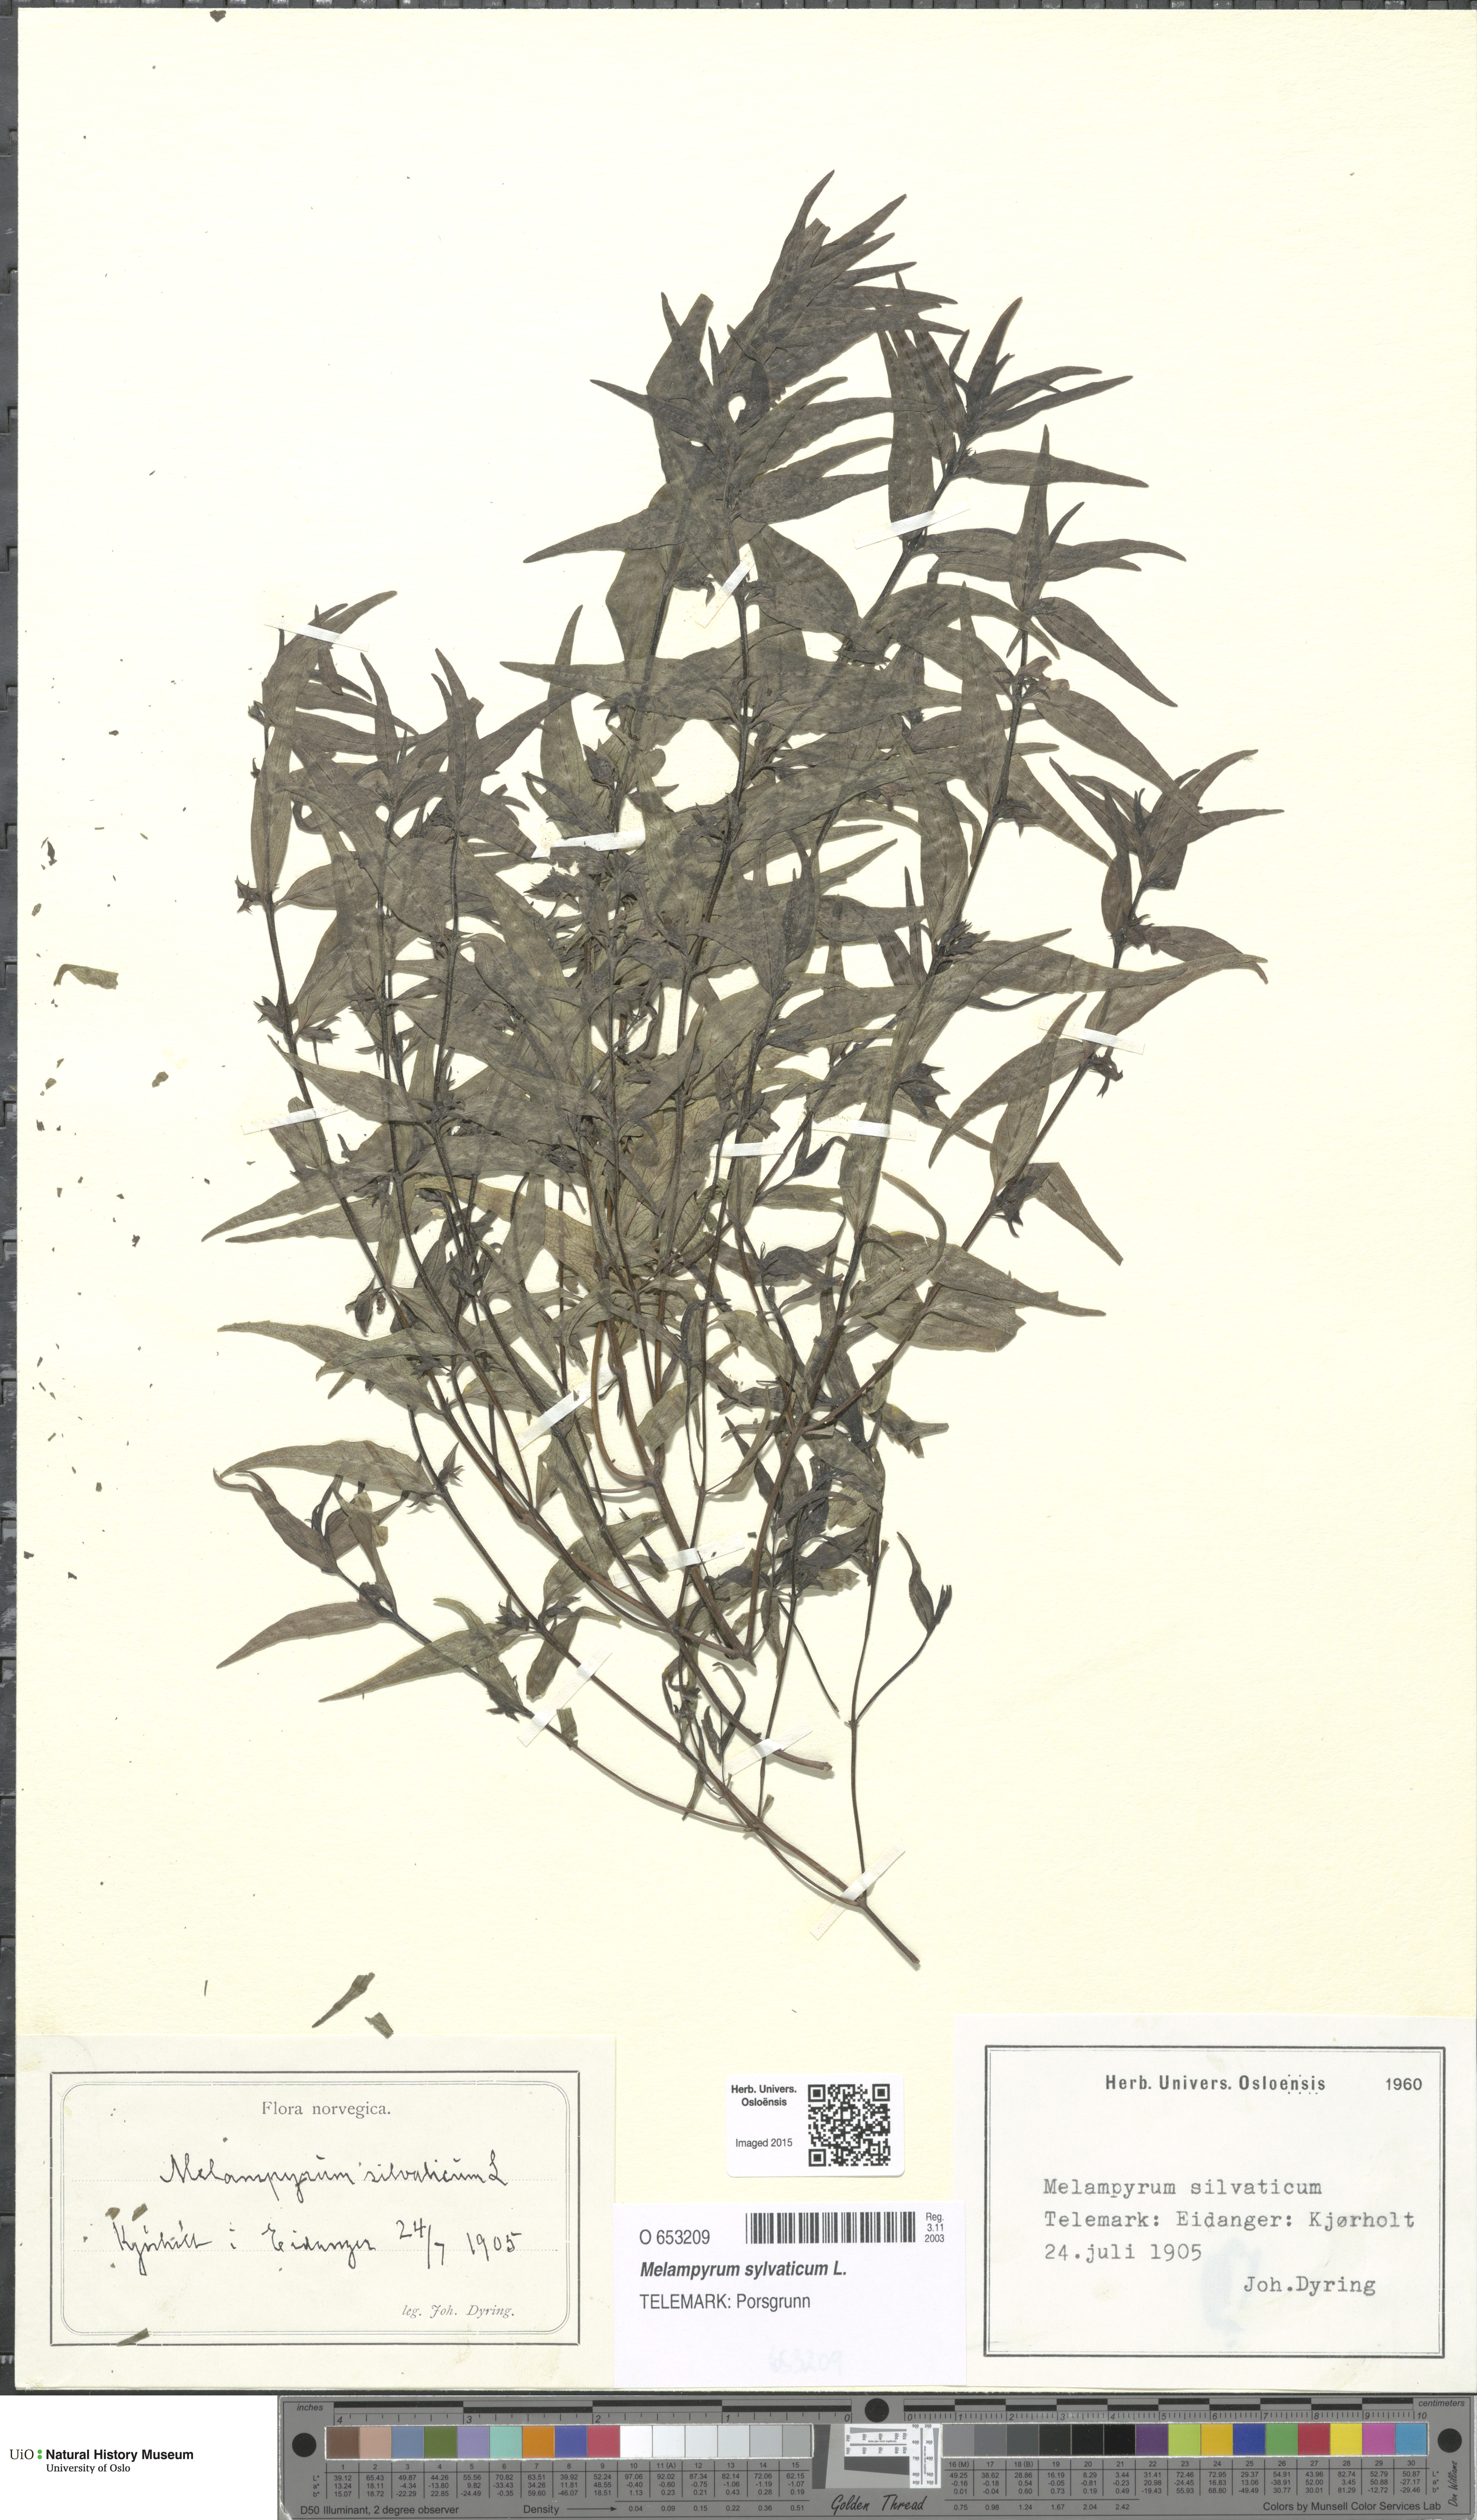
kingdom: Plantae
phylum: Tracheophyta
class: Magnoliopsida
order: Lamiales
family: Orobanchaceae
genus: Melampyrum
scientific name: Melampyrum sylvaticum
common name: Small cow-wheat
